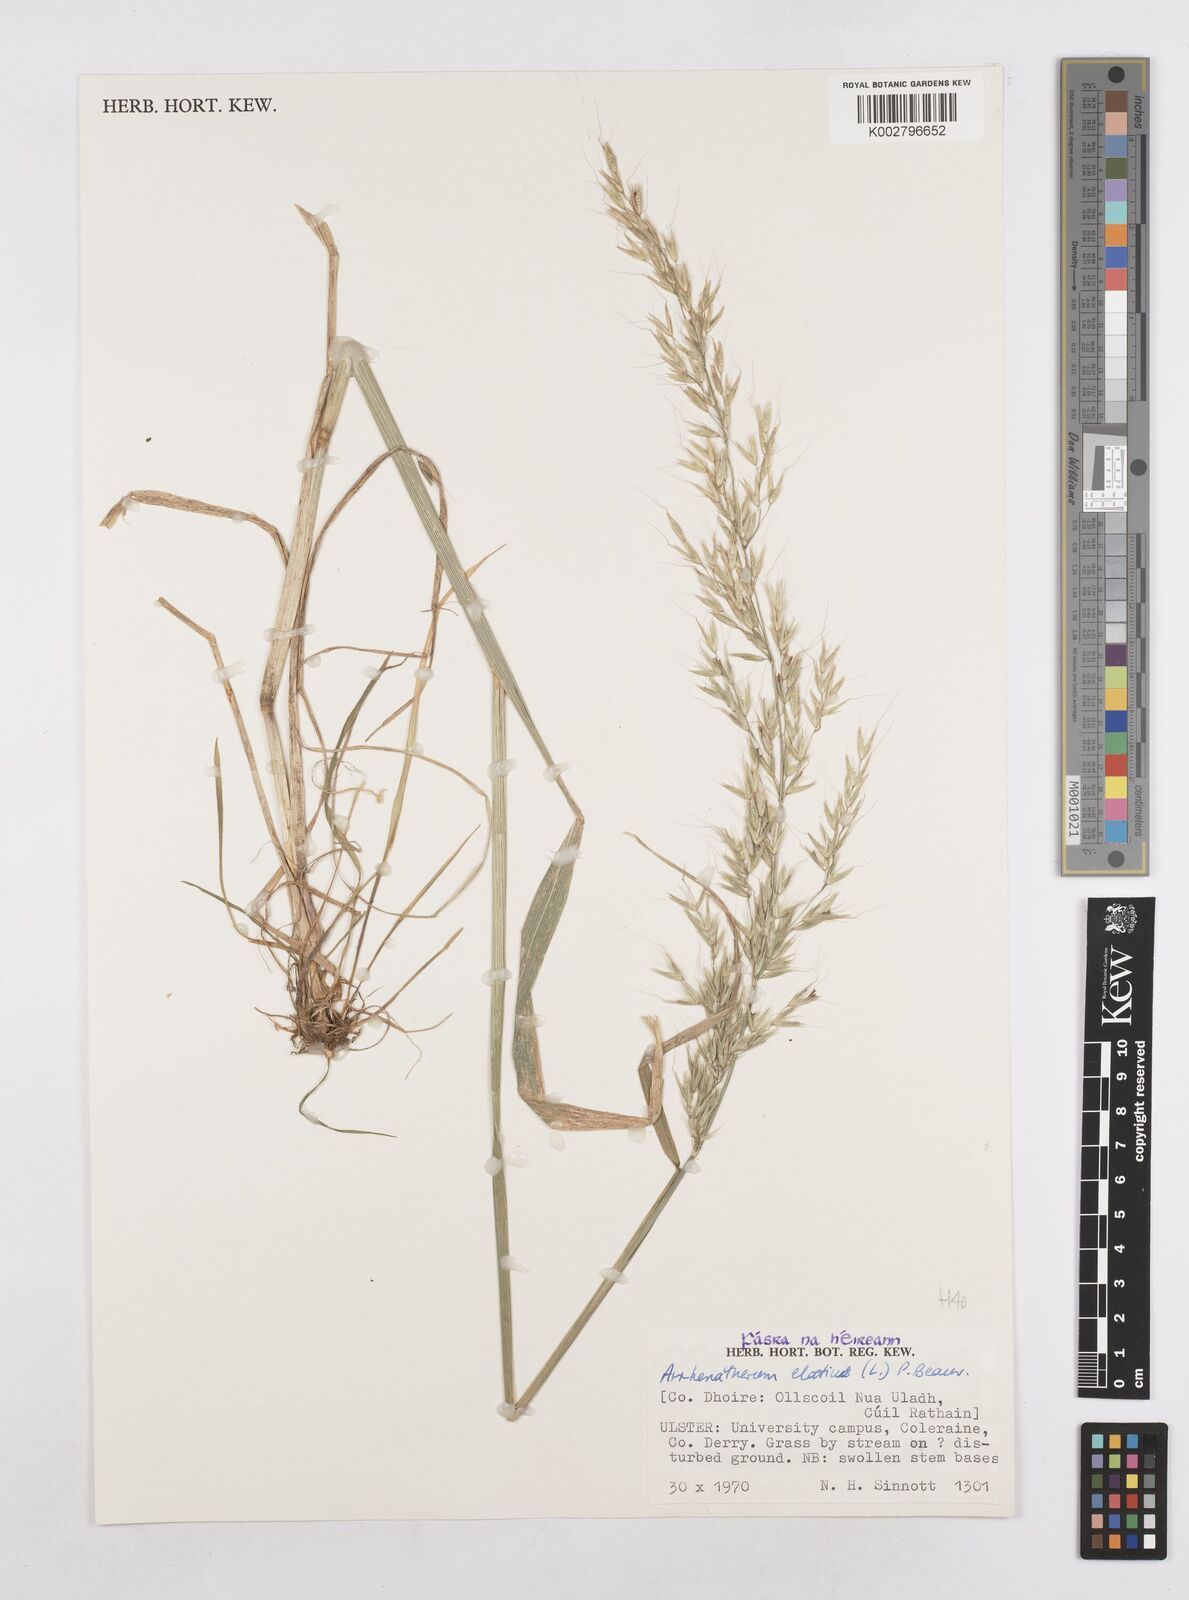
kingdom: Plantae
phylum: Tracheophyta
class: Liliopsida
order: Poales
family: Poaceae
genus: Arrhenatherum
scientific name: Arrhenatherum elatius
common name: Tall oatgrass
